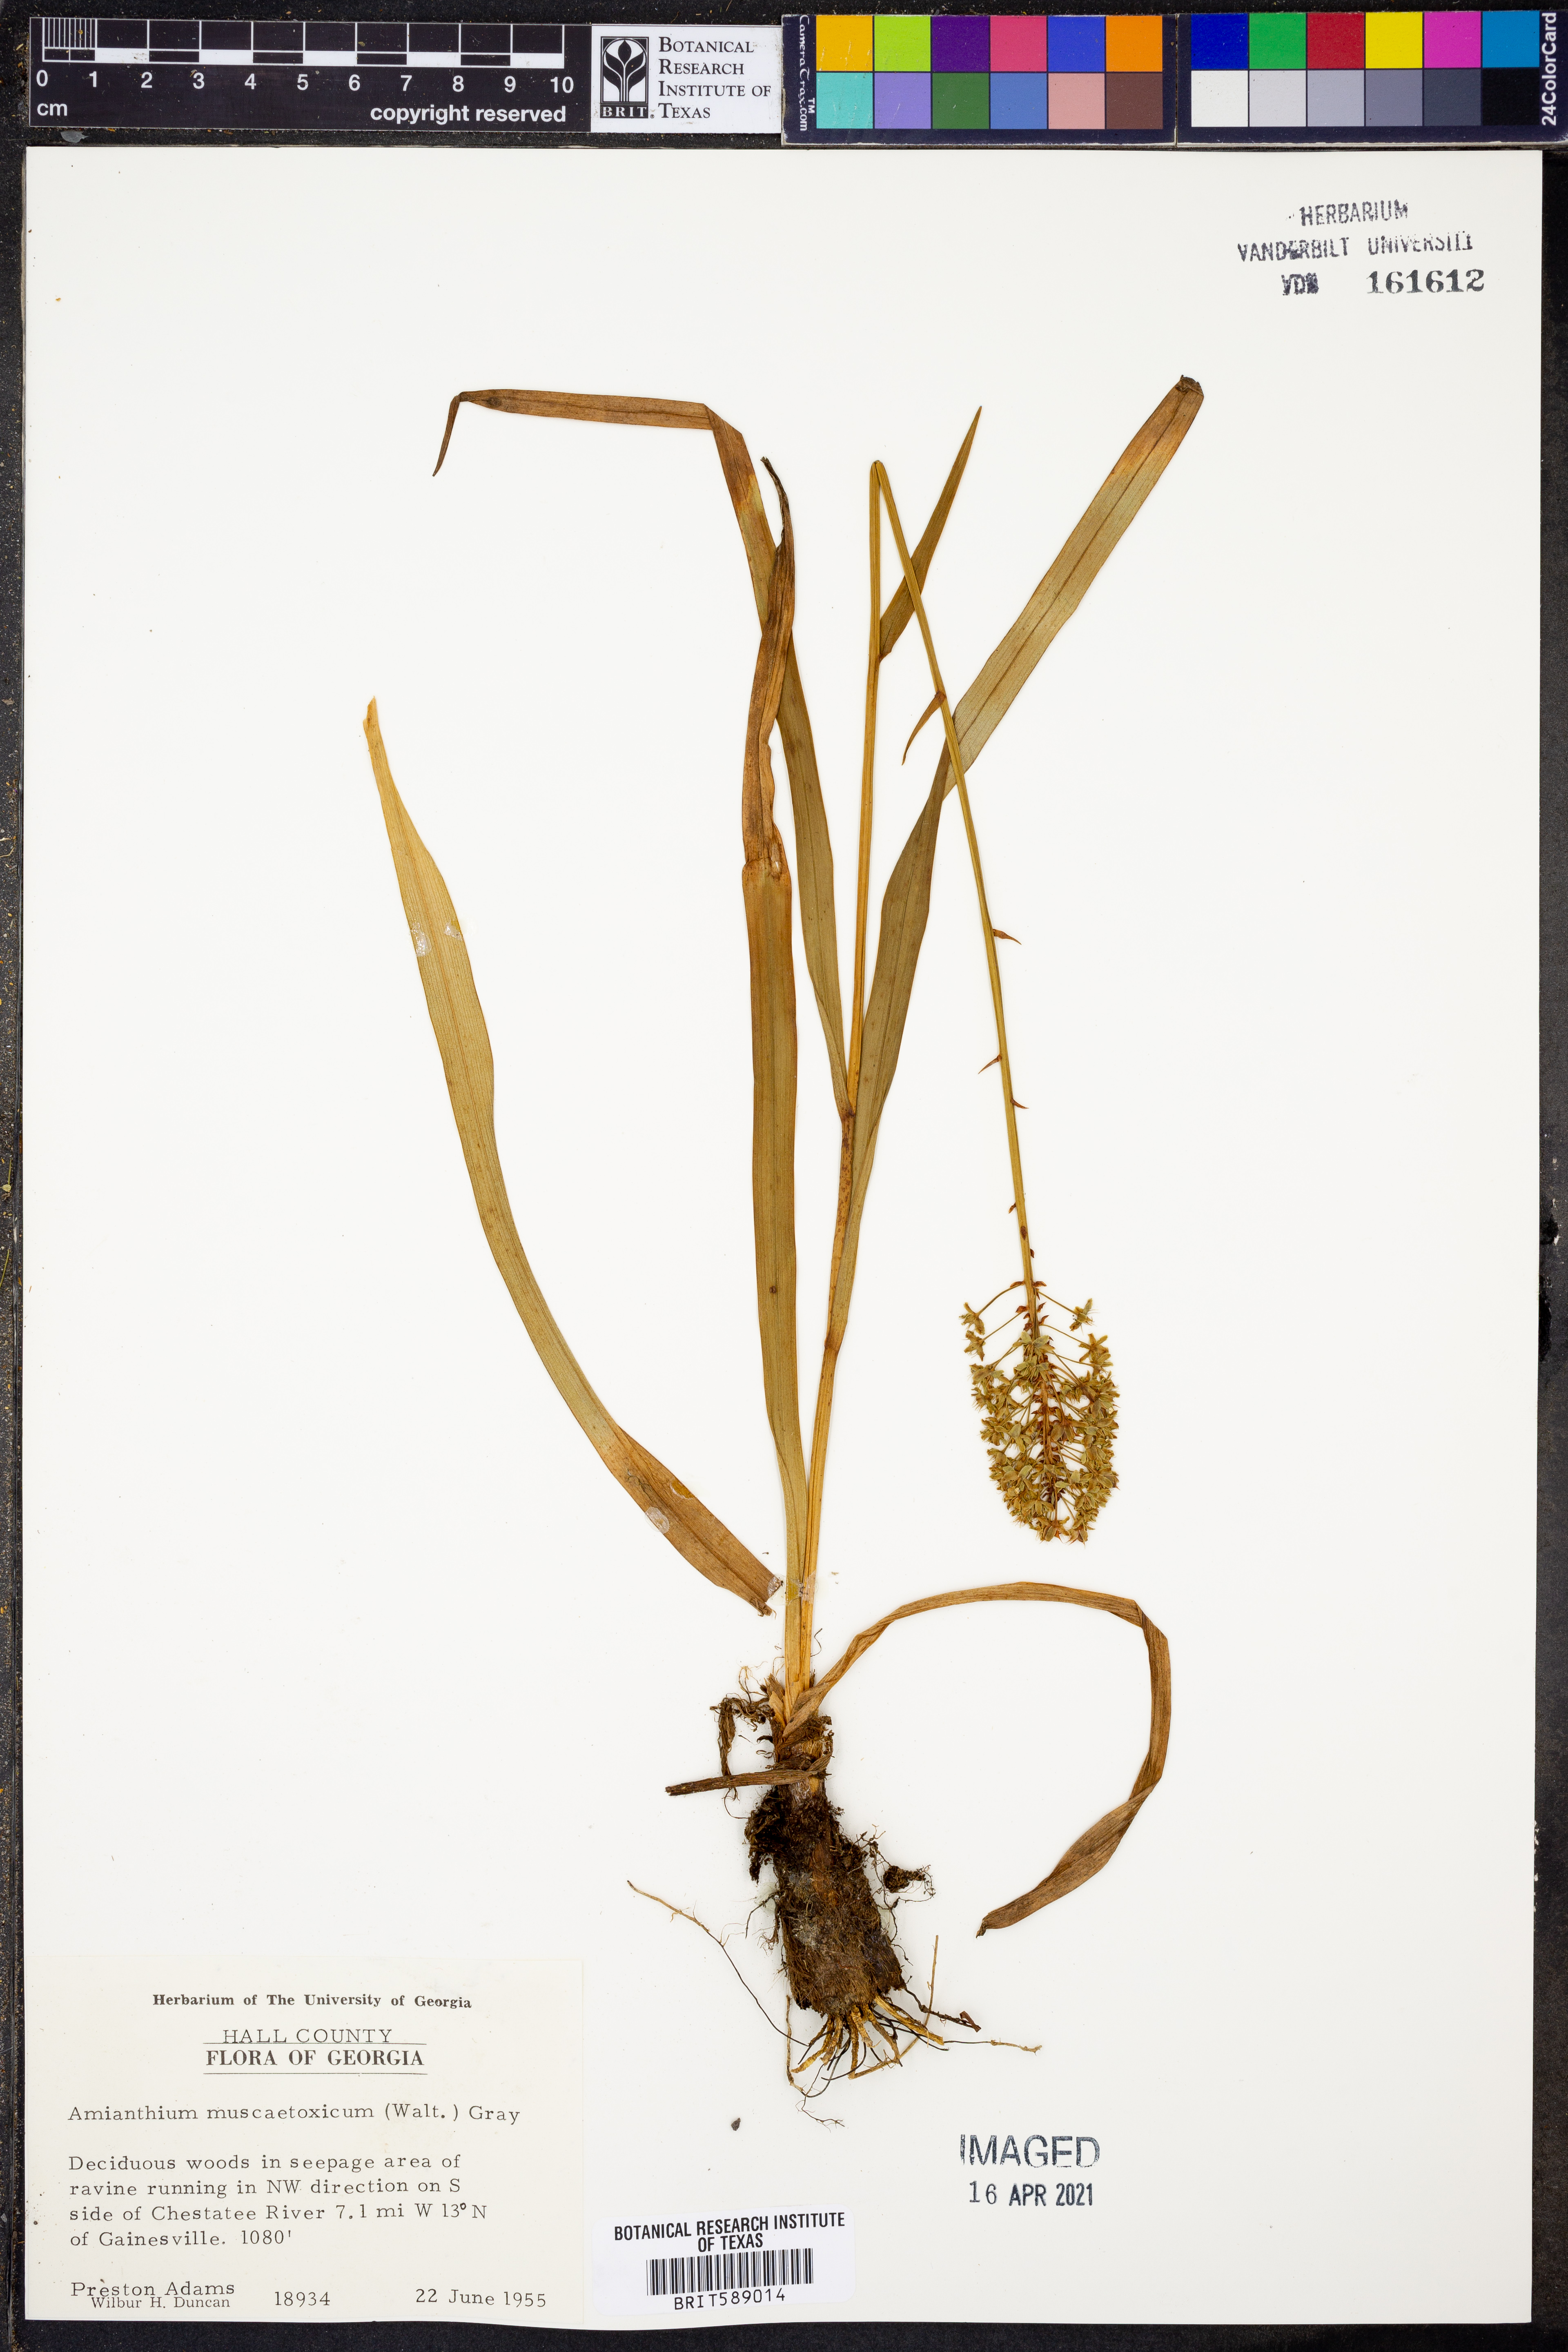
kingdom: Plantae
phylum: Tracheophyta
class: Liliopsida
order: Liliales
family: Melanthiaceae
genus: Amianthium
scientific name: Amianthium muscitoxicum
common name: Fly-poison
